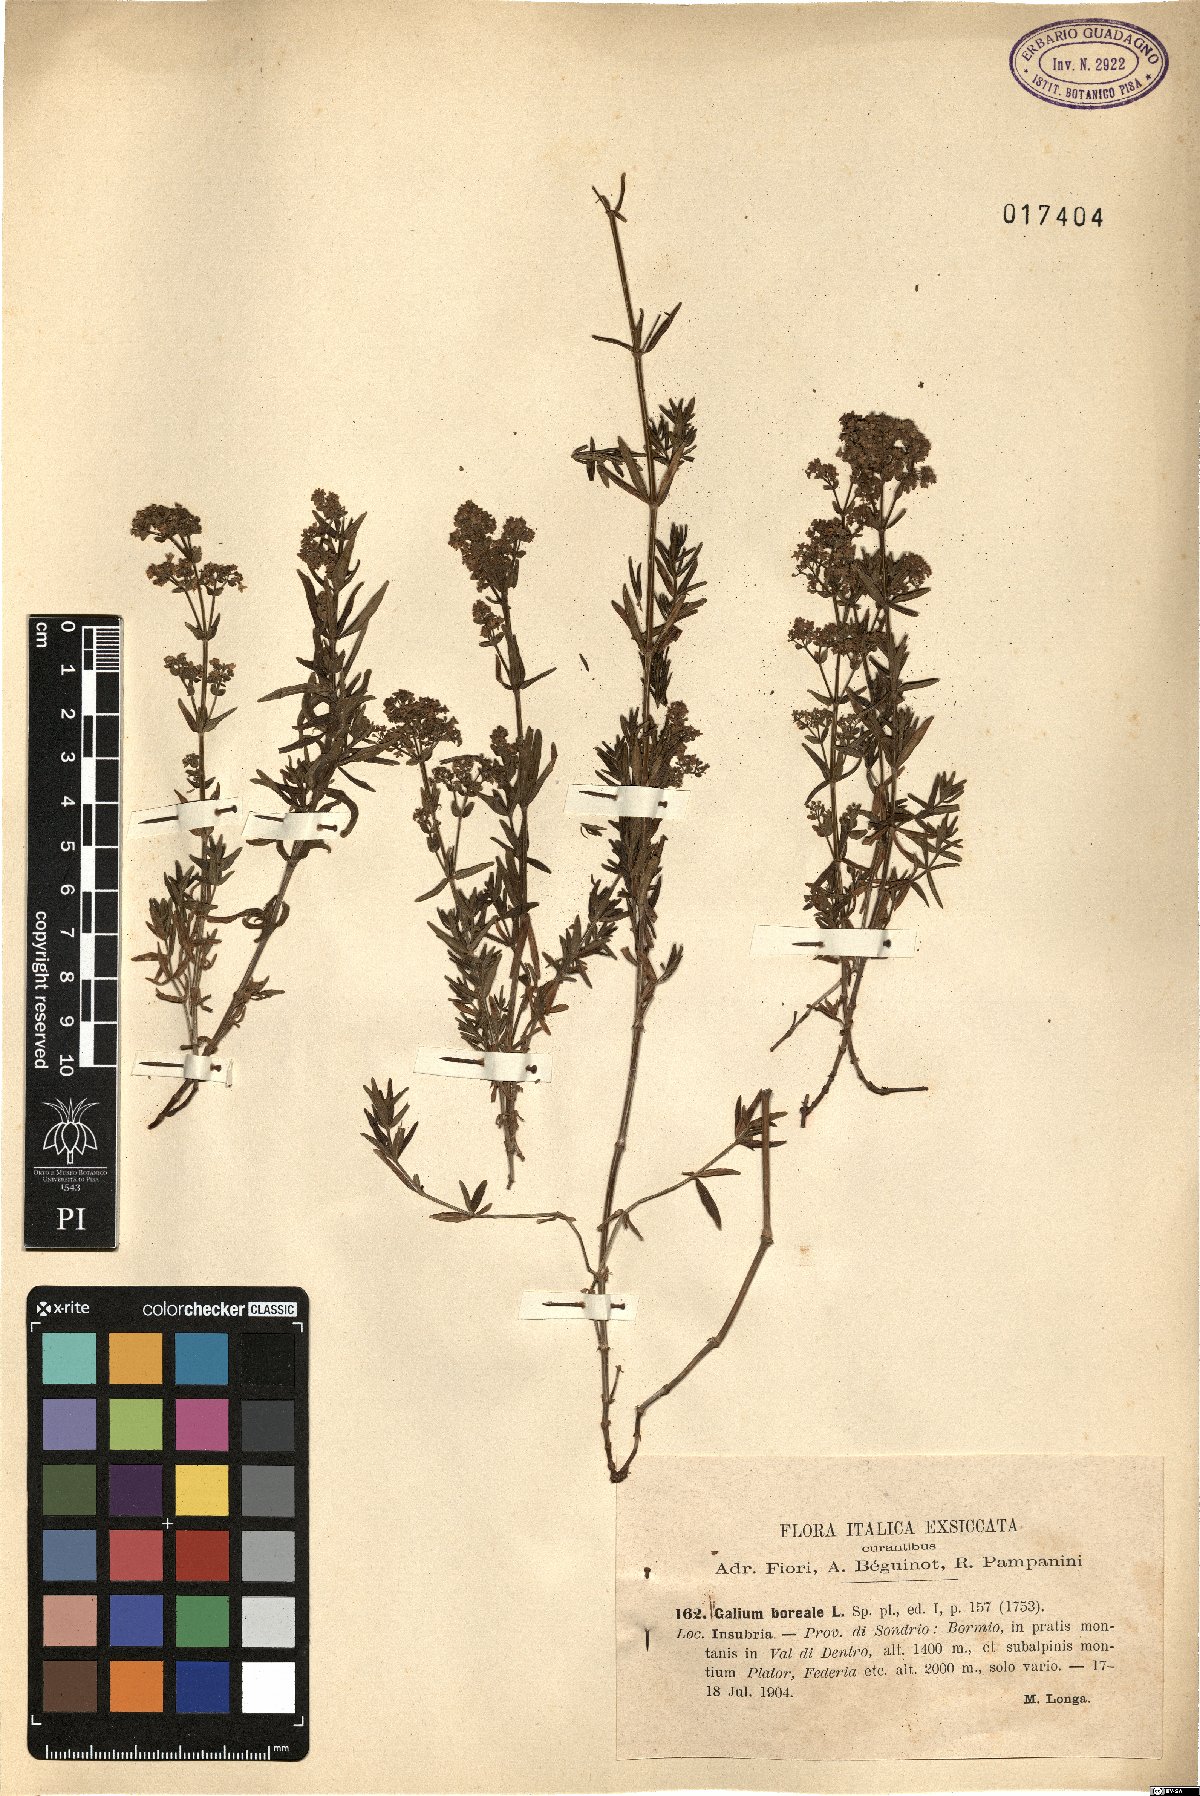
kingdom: Plantae
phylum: Tracheophyta
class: Magnoliopsida
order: Gentianales
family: Rubiaceae
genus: Galium
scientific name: Galium boreale
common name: Northern bedstraw
